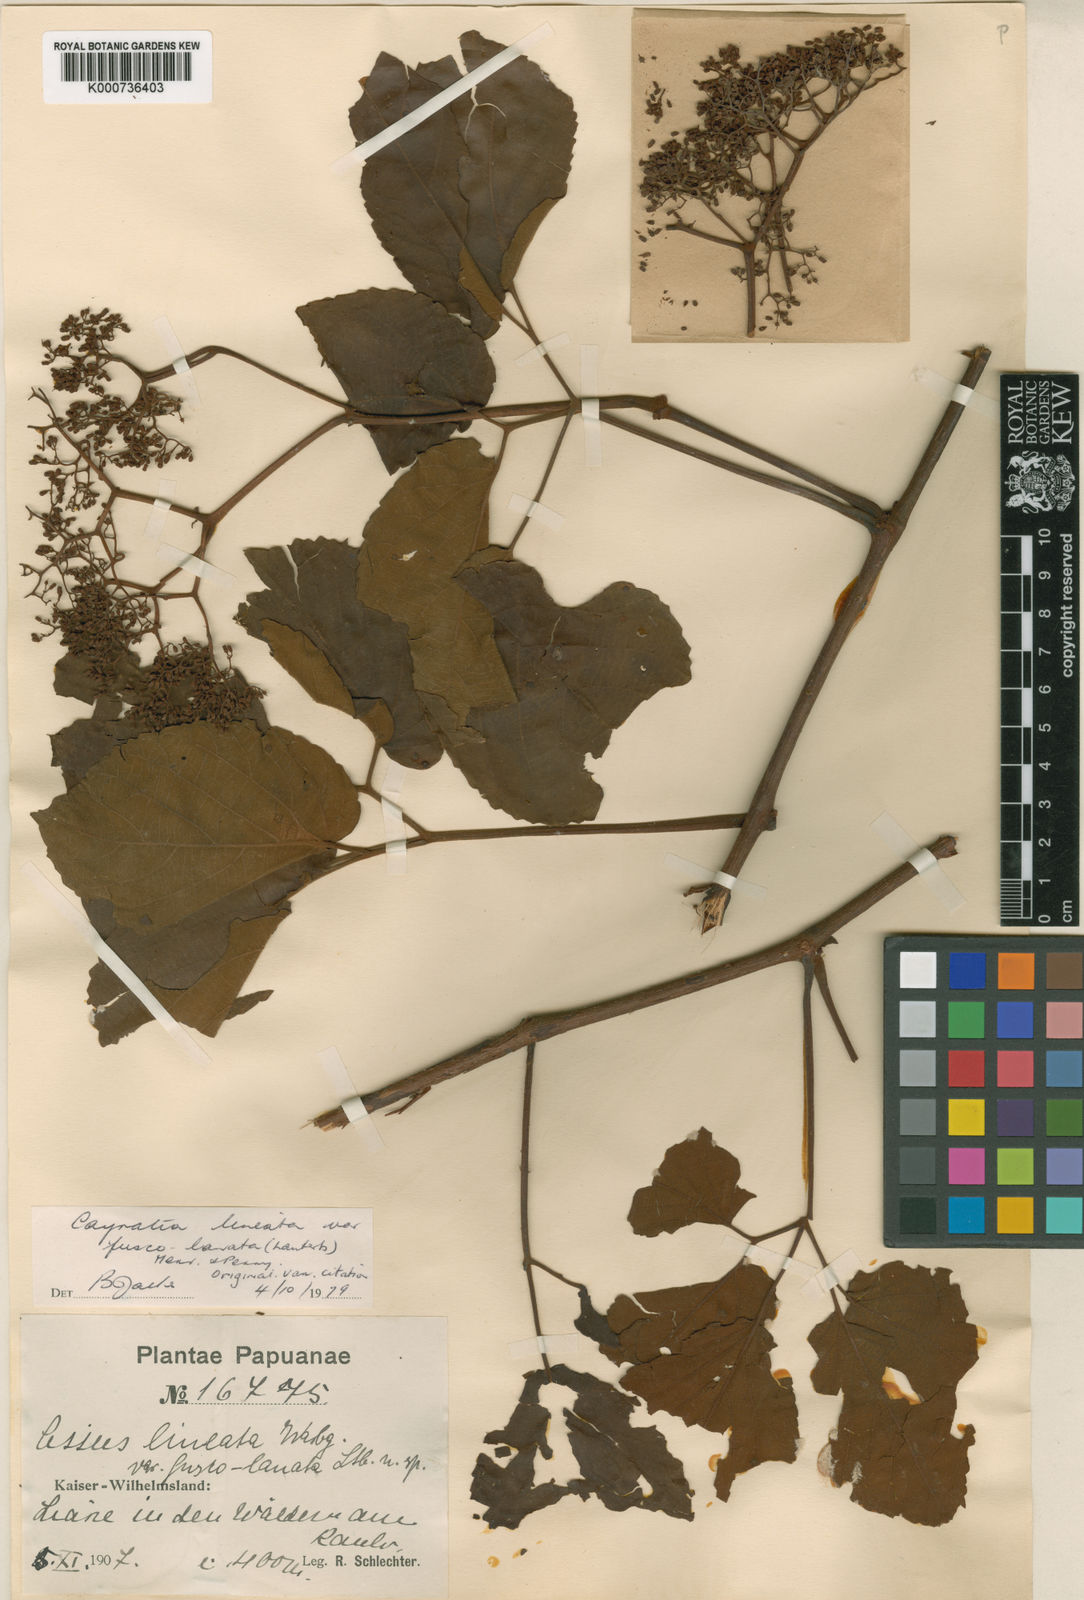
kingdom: Plantae
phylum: Tracheophyta
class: Magnoliopsida
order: Vitales
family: Vitaceae
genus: Cayratia
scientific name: Cayratia lineata
